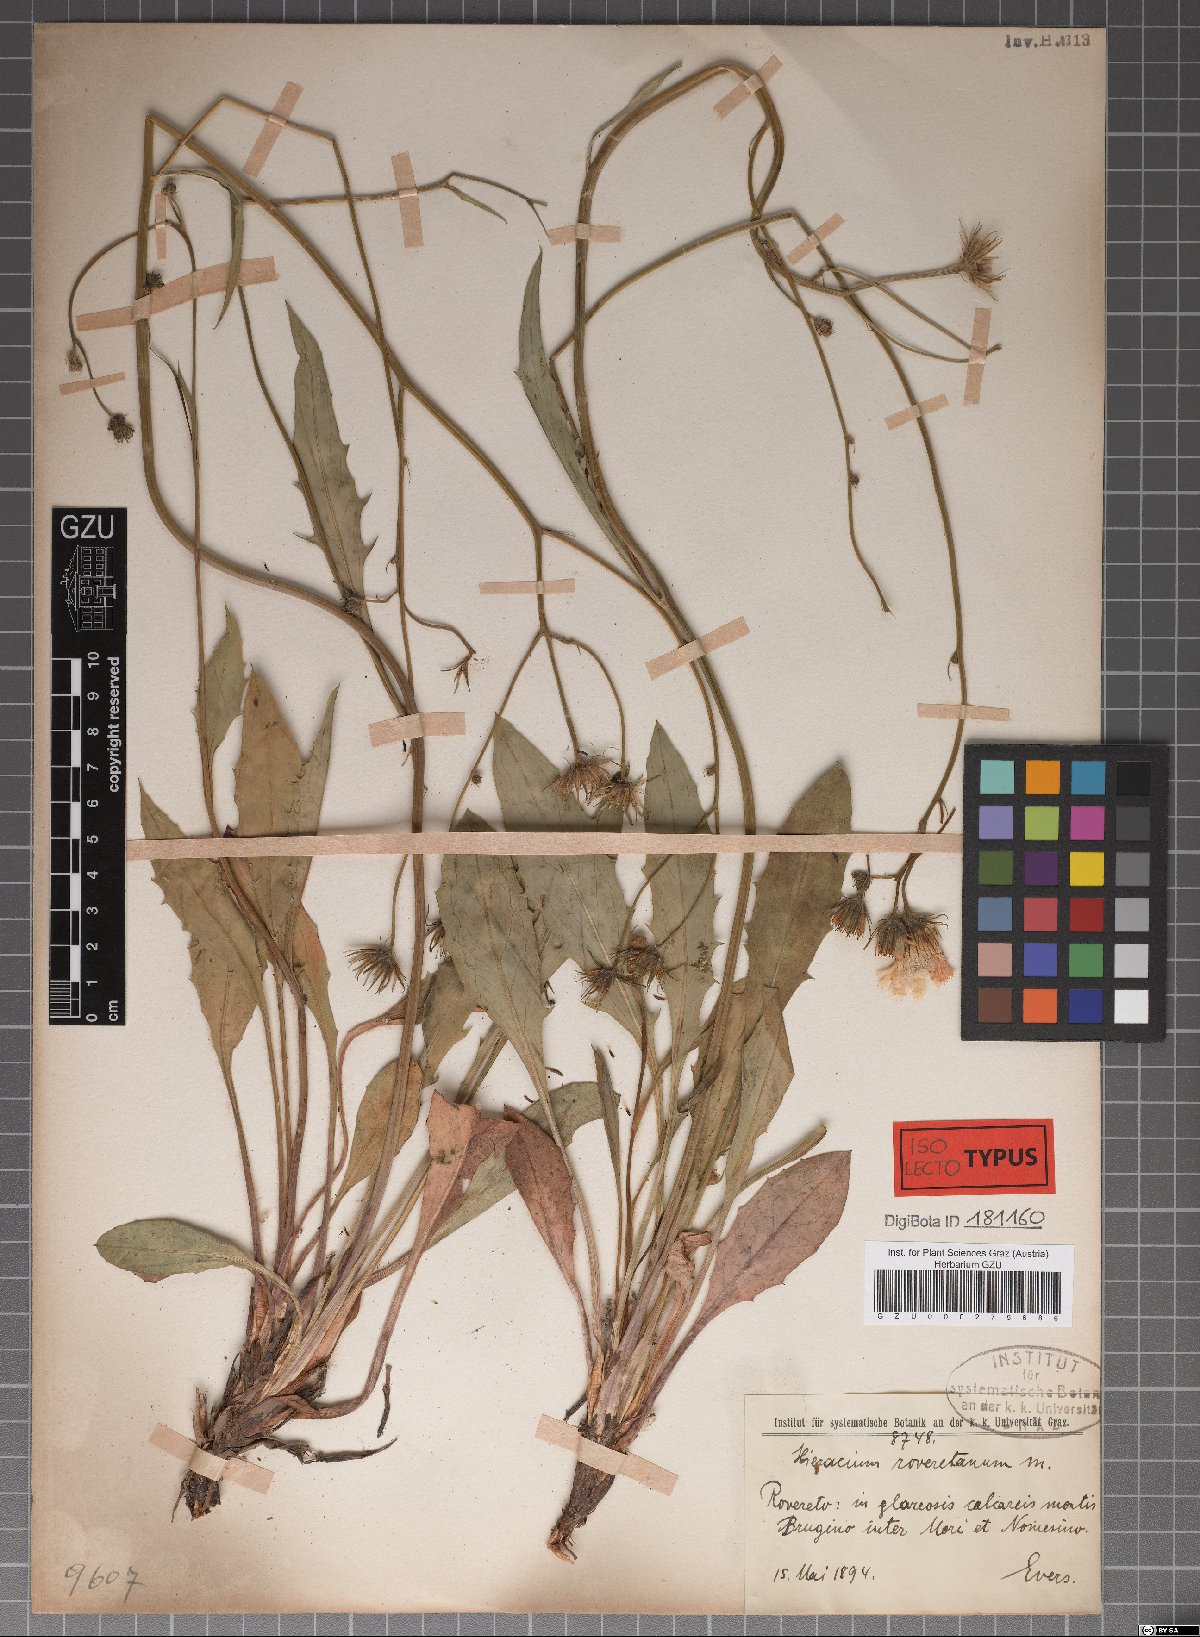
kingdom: Plantae
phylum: Tracheophyta
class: Magnoliopsida
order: Asterales
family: Asteraceae
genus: Hieracium
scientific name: Hieracium dollineri
